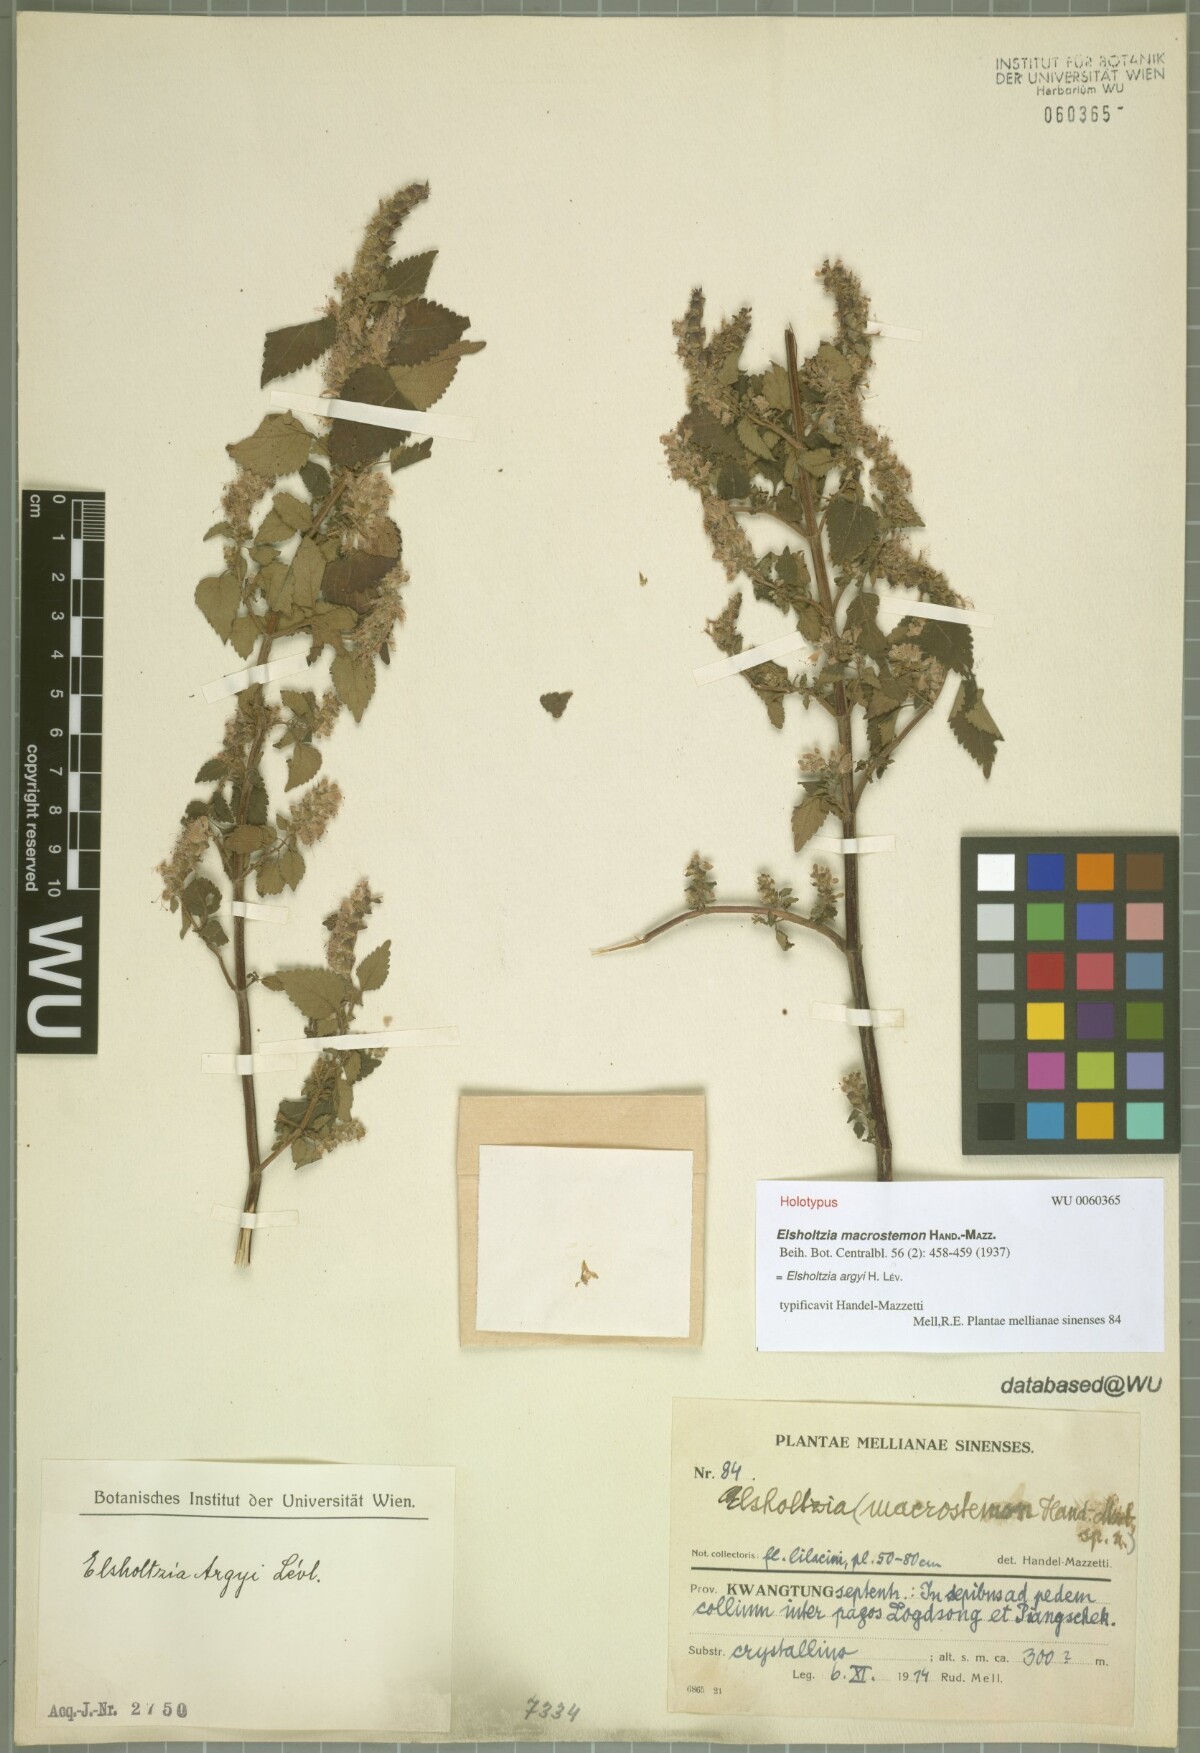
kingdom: Plantae
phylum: Tracheophyta
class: Magnoliopsida
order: Lamiales
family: Lamiaceae
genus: Elsholtzia
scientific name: Elsholtzia argyi
